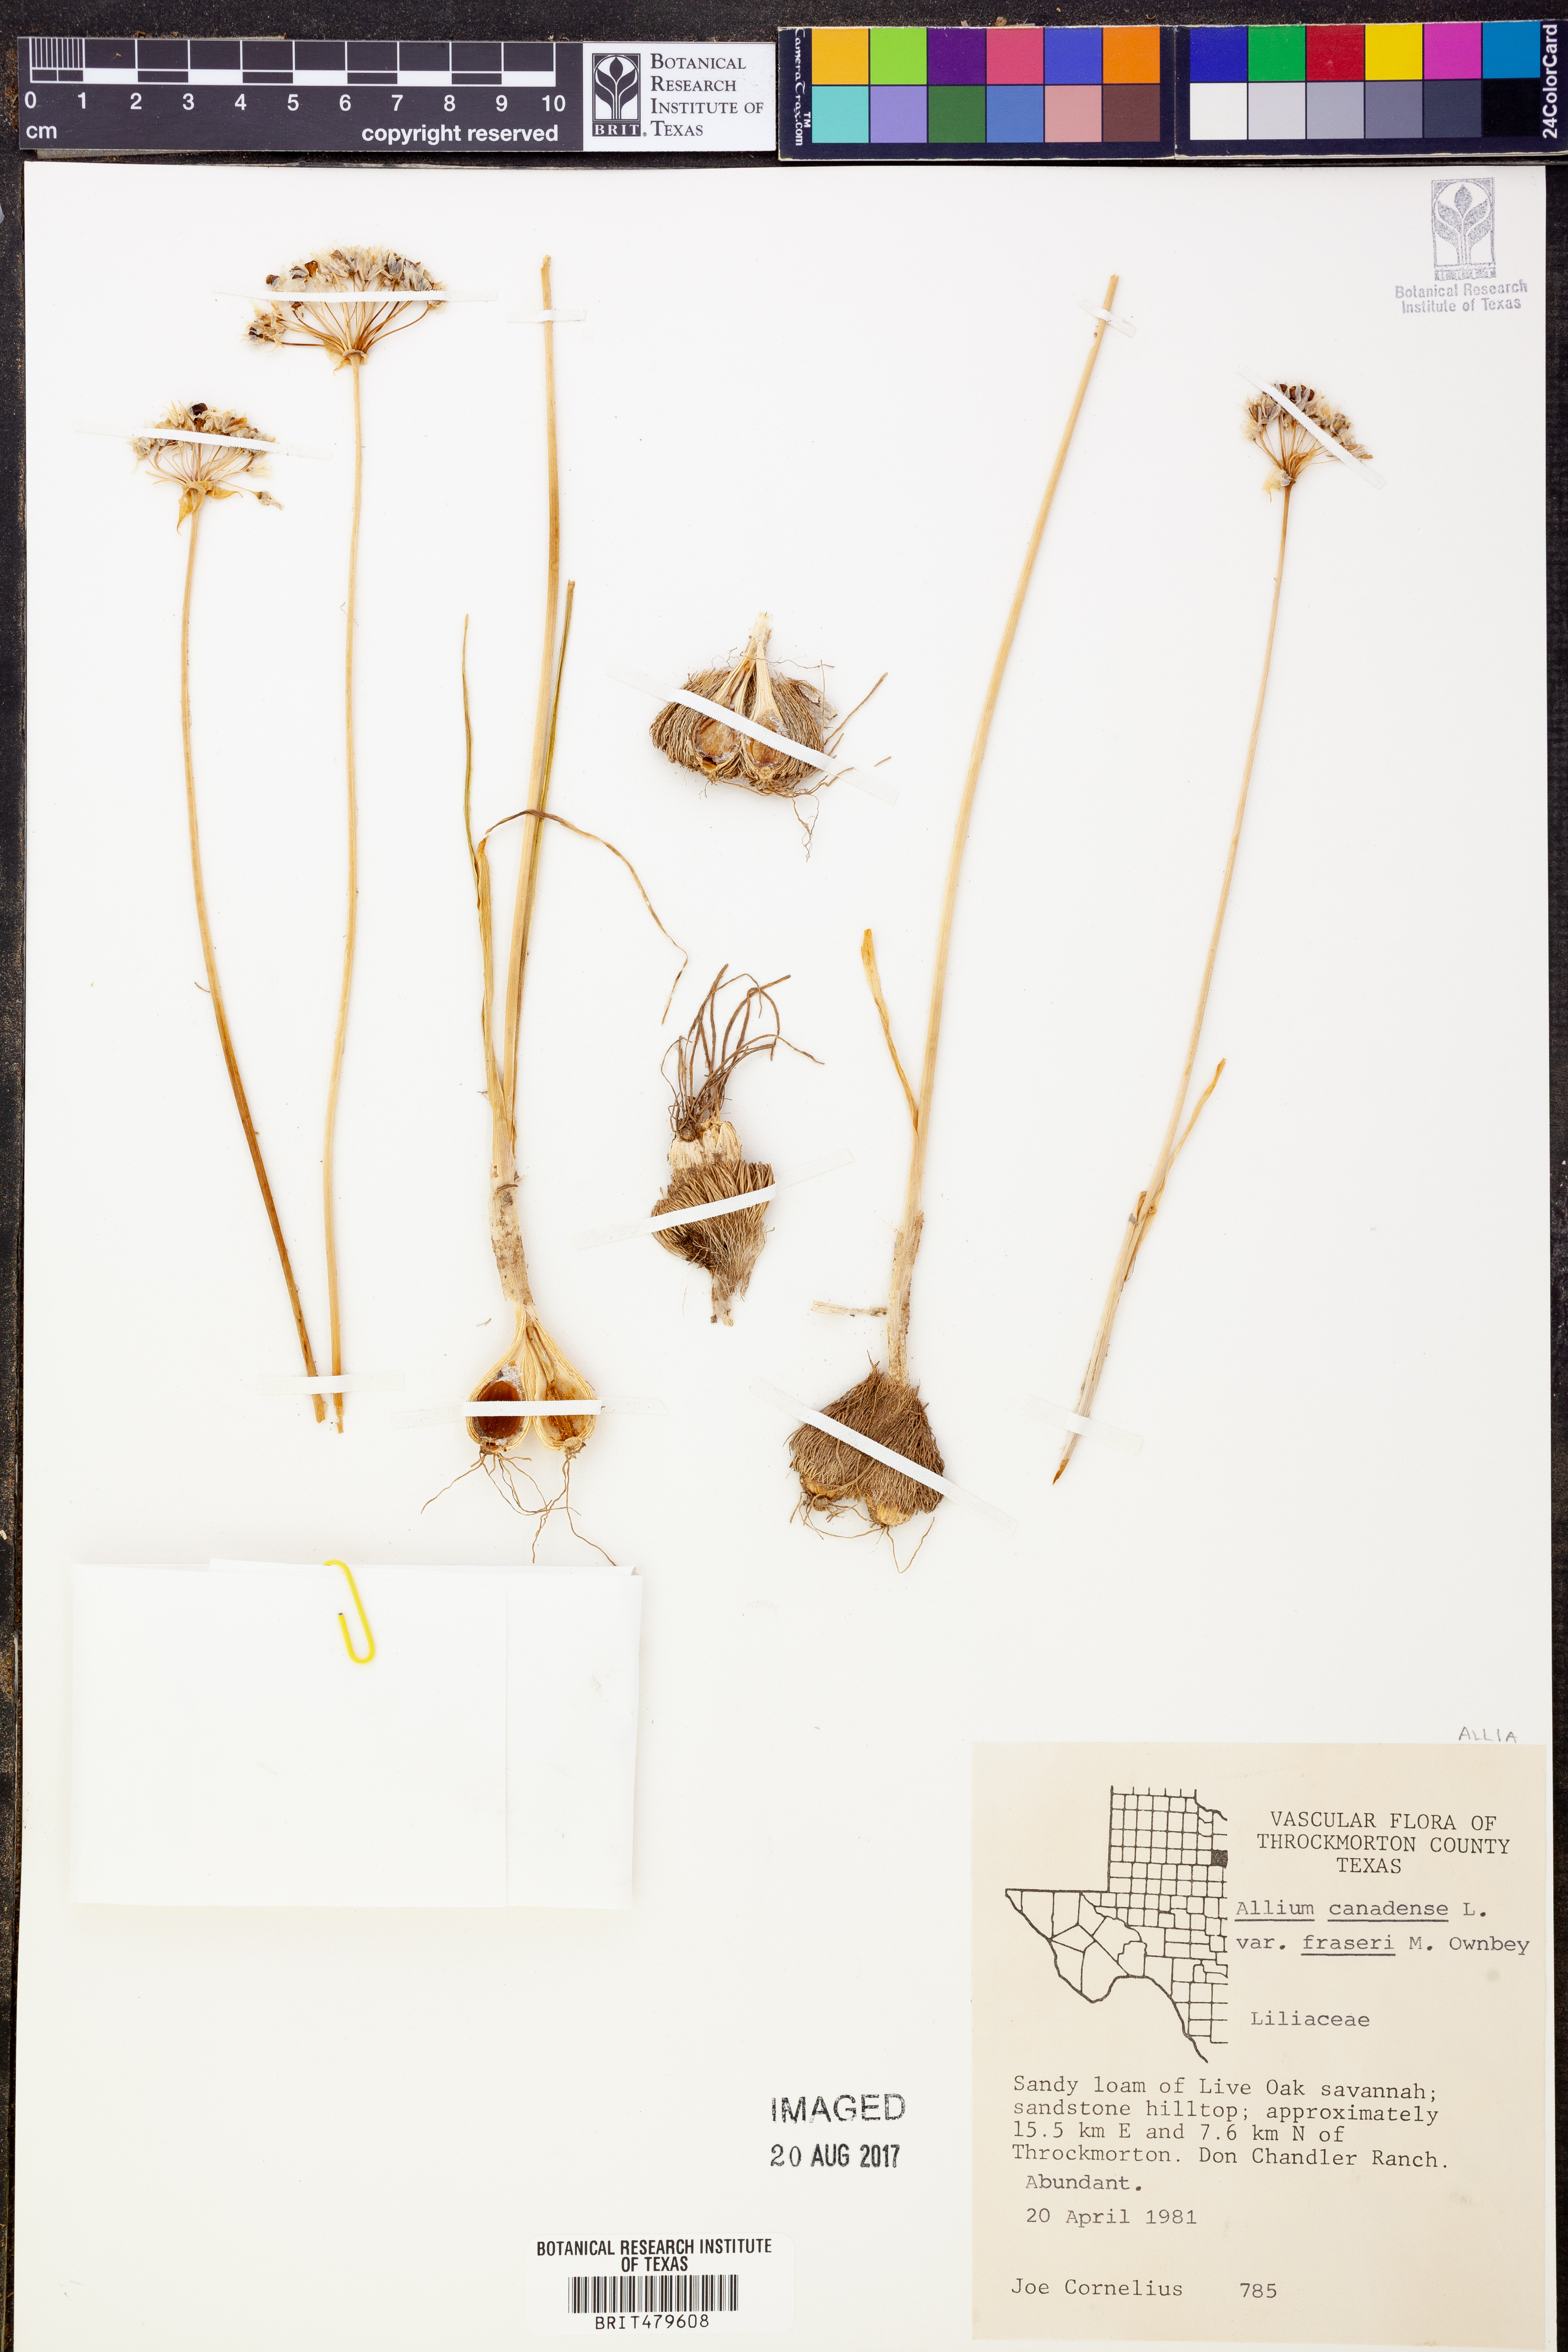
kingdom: Plantae
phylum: Tracheophyta
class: Liliopsida
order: Asparagales
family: Amaryllidaceae
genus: Allium
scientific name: Allium fraseri
